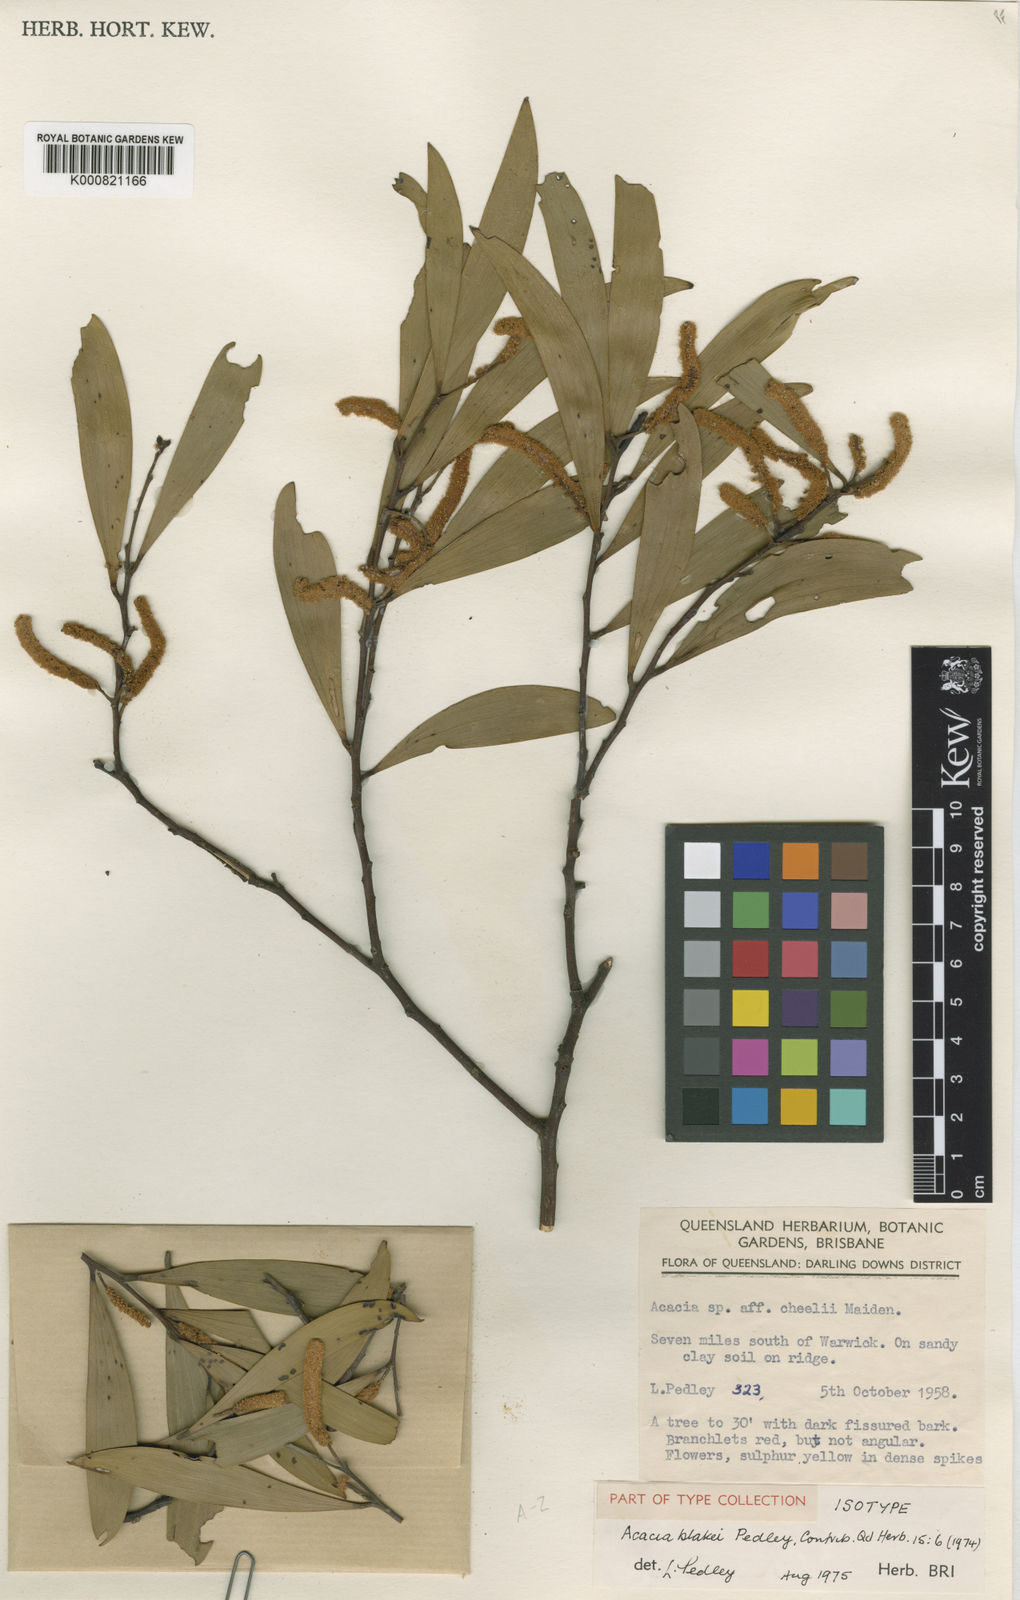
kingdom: Plantae
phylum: Tracheophyta
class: Magnoliopsida
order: Fabales
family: Fabaceae
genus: Acacia
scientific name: Acacia blakei
